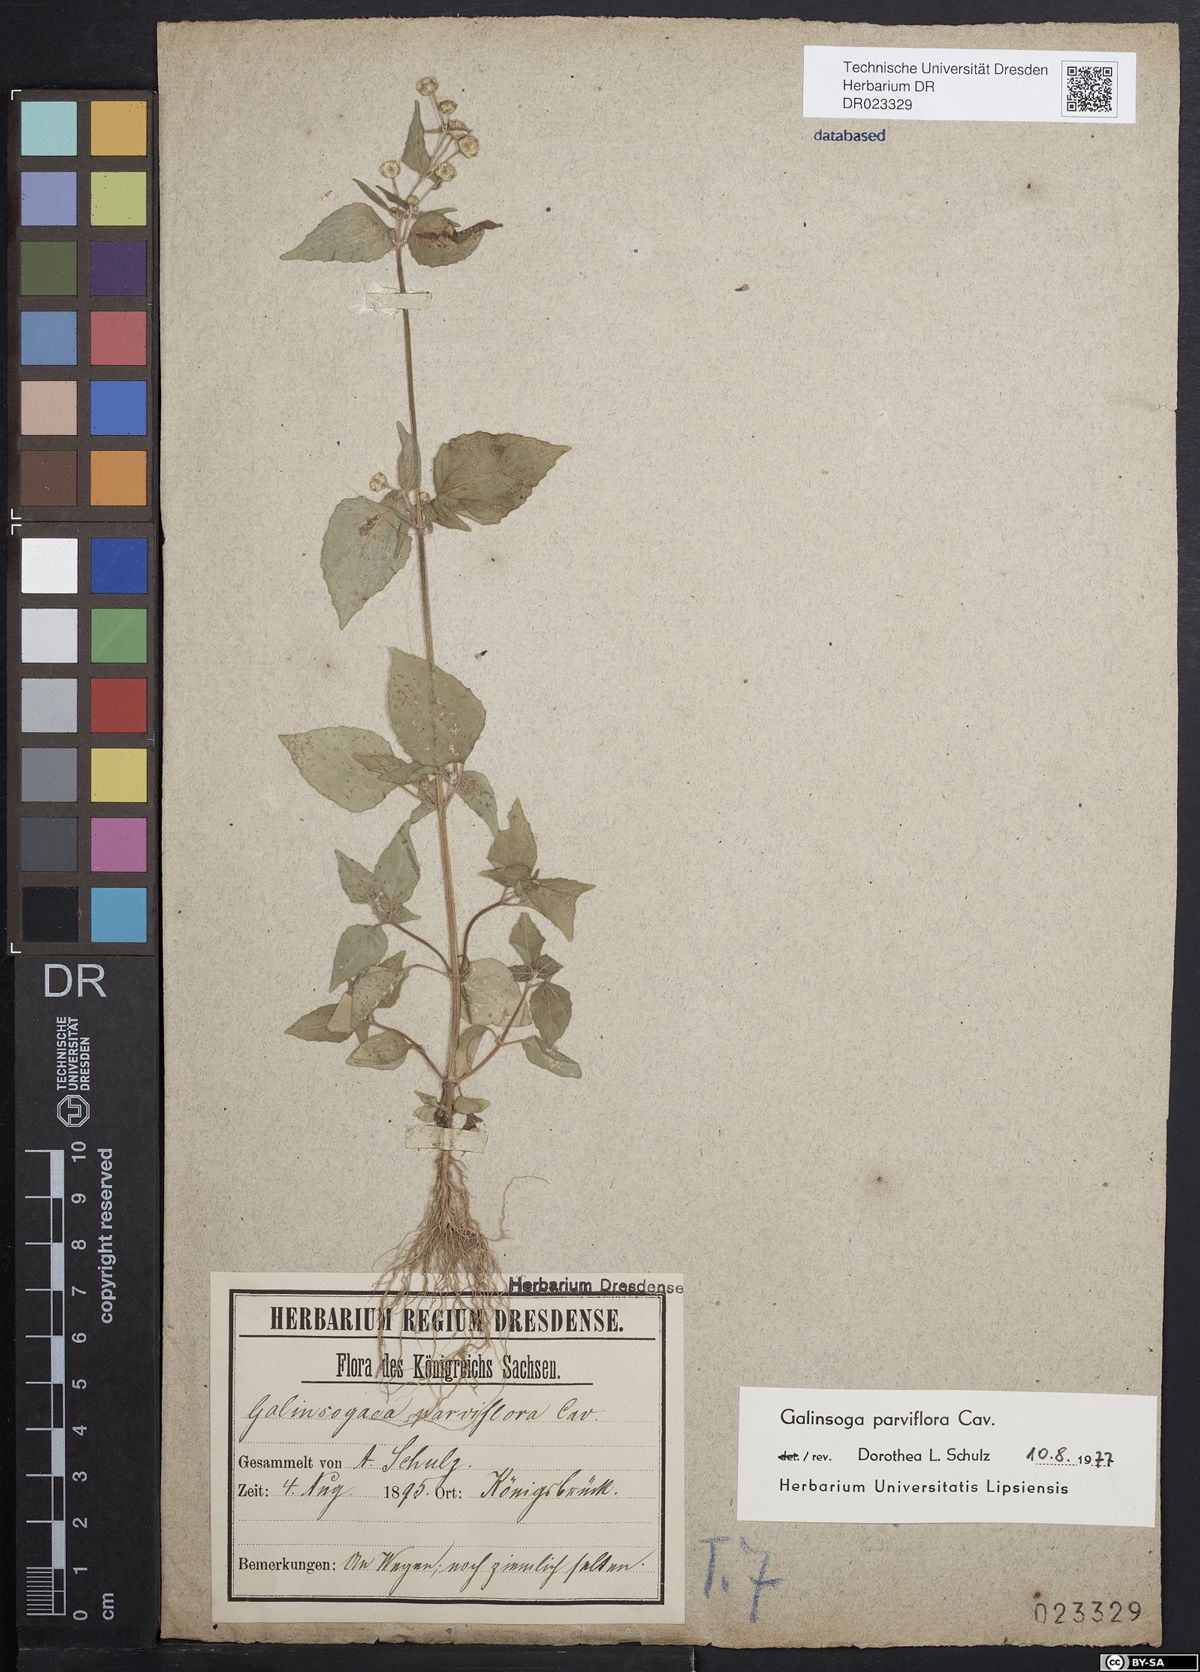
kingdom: Plantae
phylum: Tracheophyta
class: Magnoliopsida
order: Asterales
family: Asteraceae
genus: Galinsoga
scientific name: Galinsoga parviflora
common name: Gallant soldier
